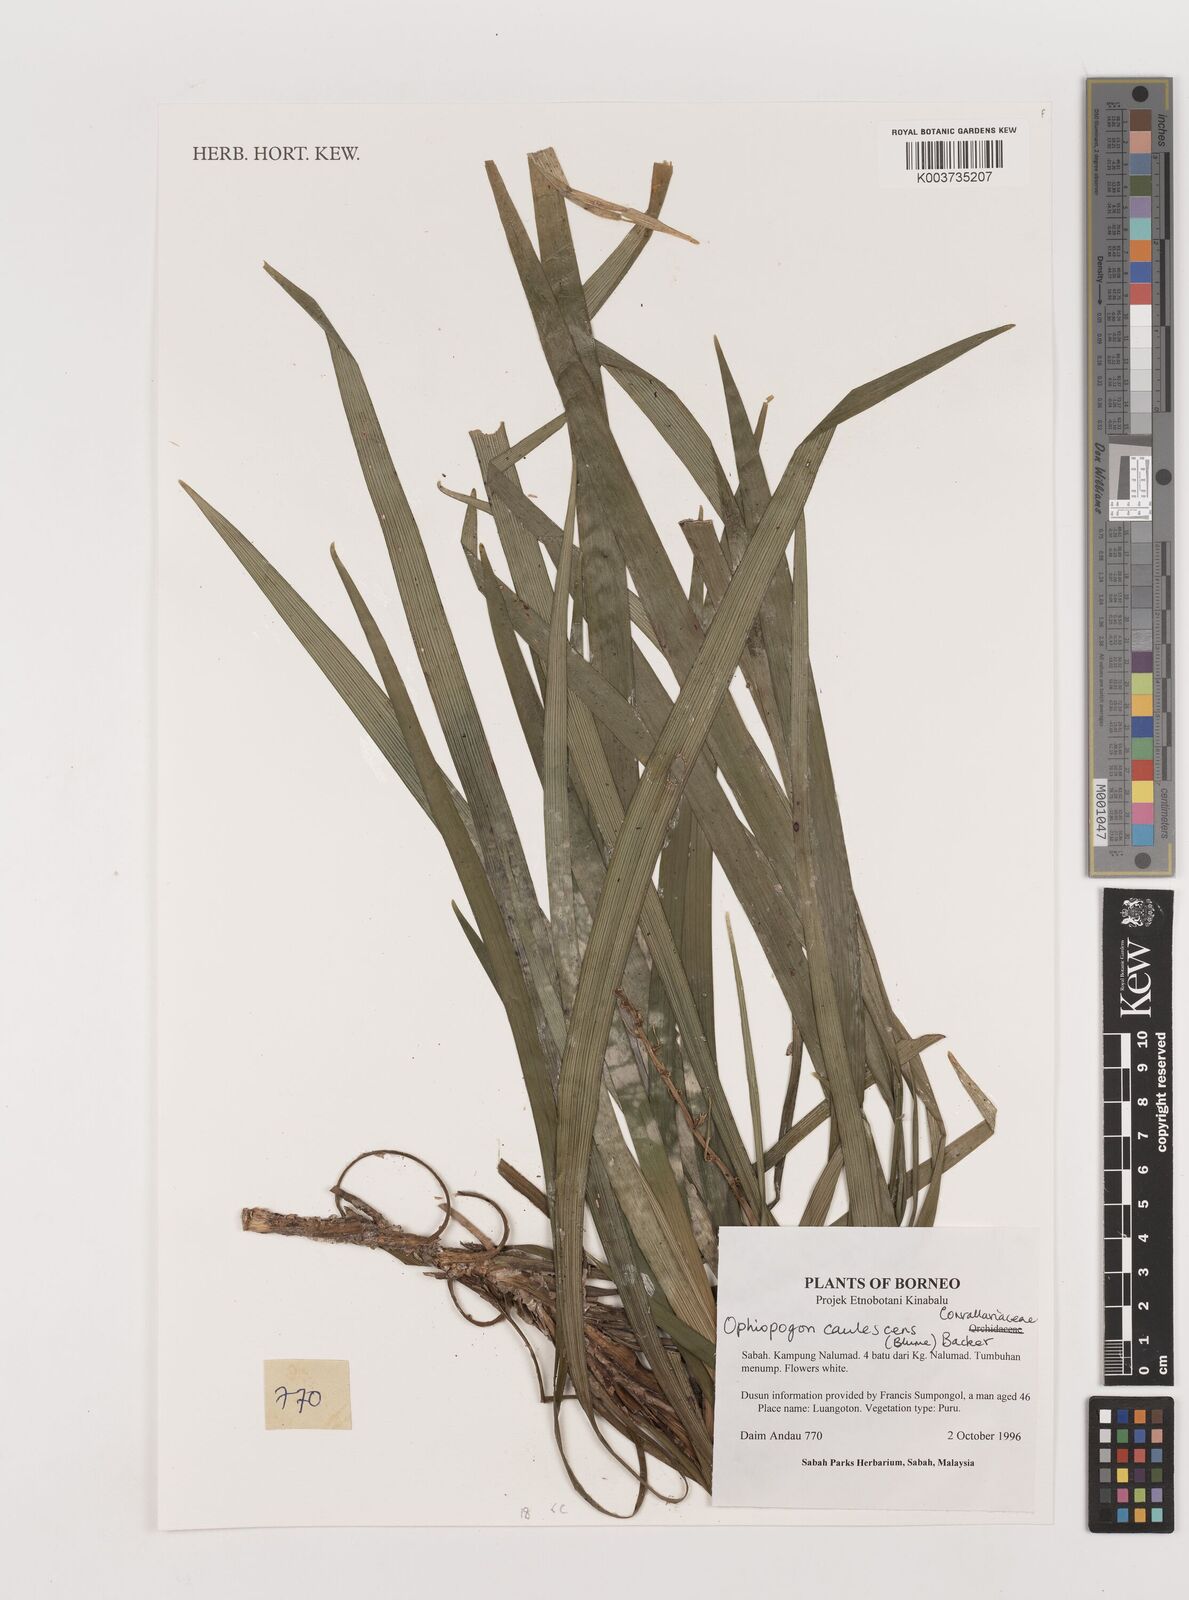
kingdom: Plantae
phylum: Tracheophyta
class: Liliopsida
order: Asparagales
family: Asparagaceae
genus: Ophiopogon
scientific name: Ophiopogon caulescens
